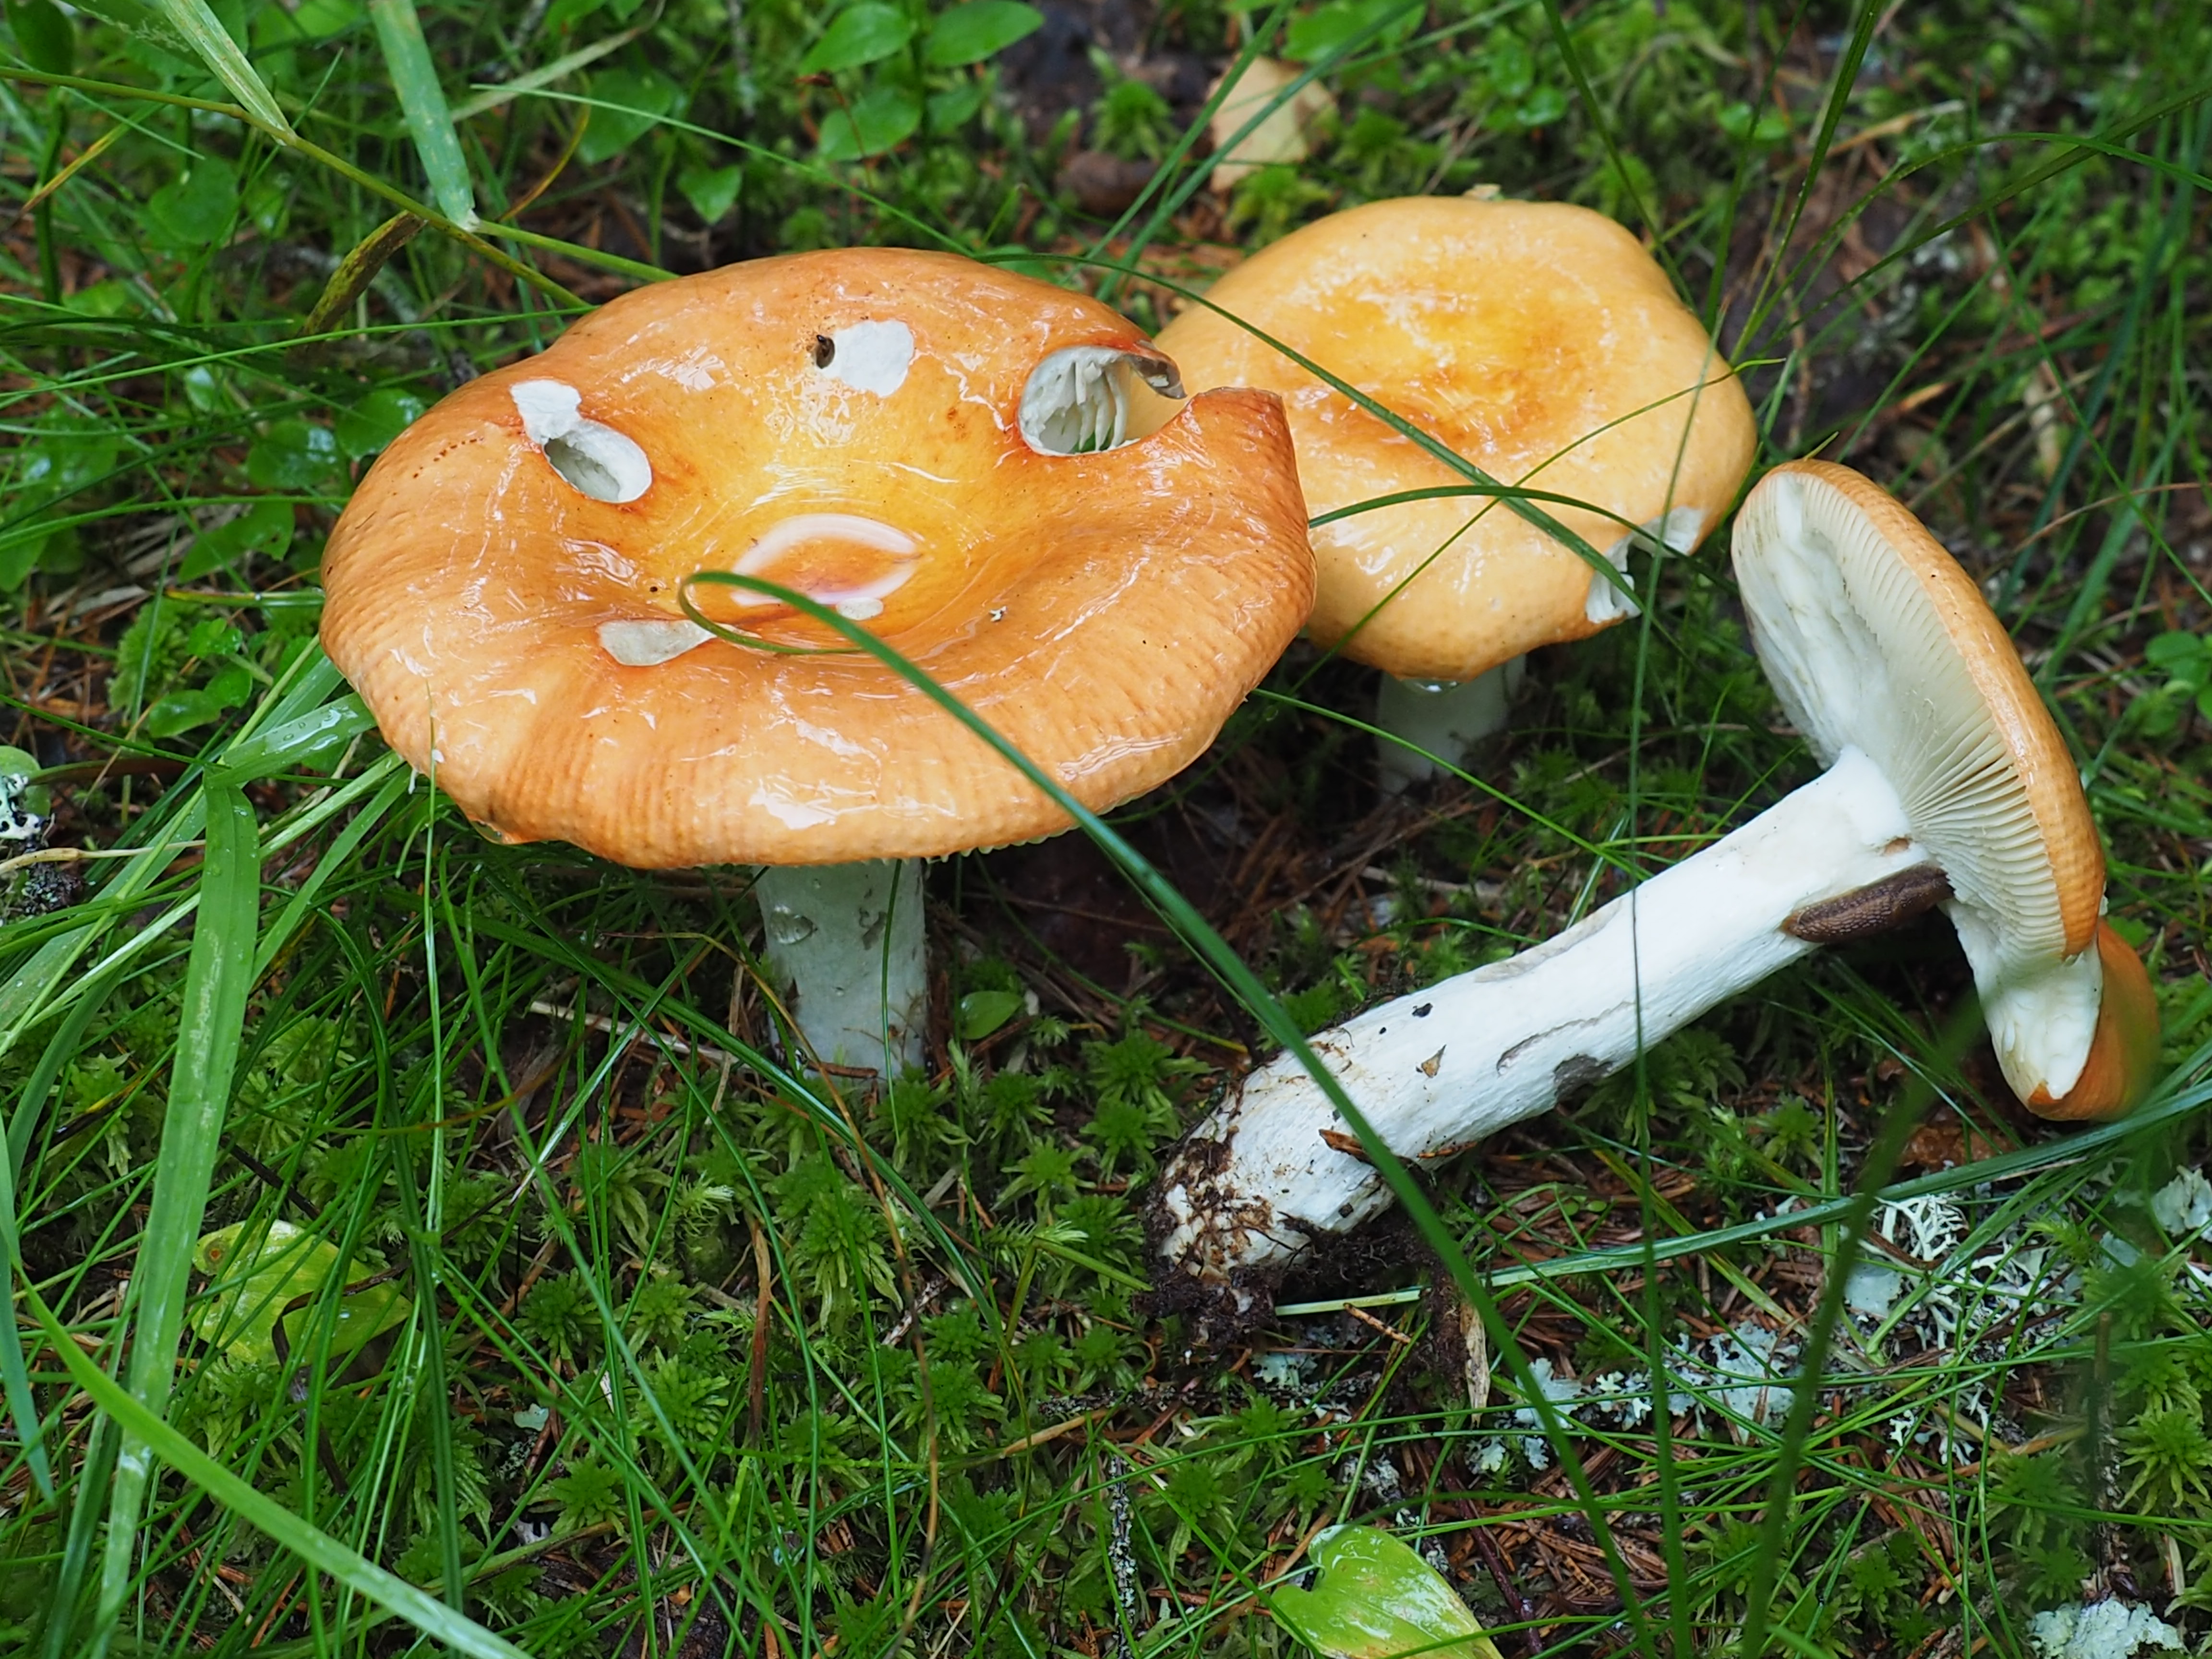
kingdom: Fungi
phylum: Basidiomycota
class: Agaricomycetes
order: Russulales
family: Russulaceae
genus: Russula
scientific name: Russula decolorans
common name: Copper brittlegill
